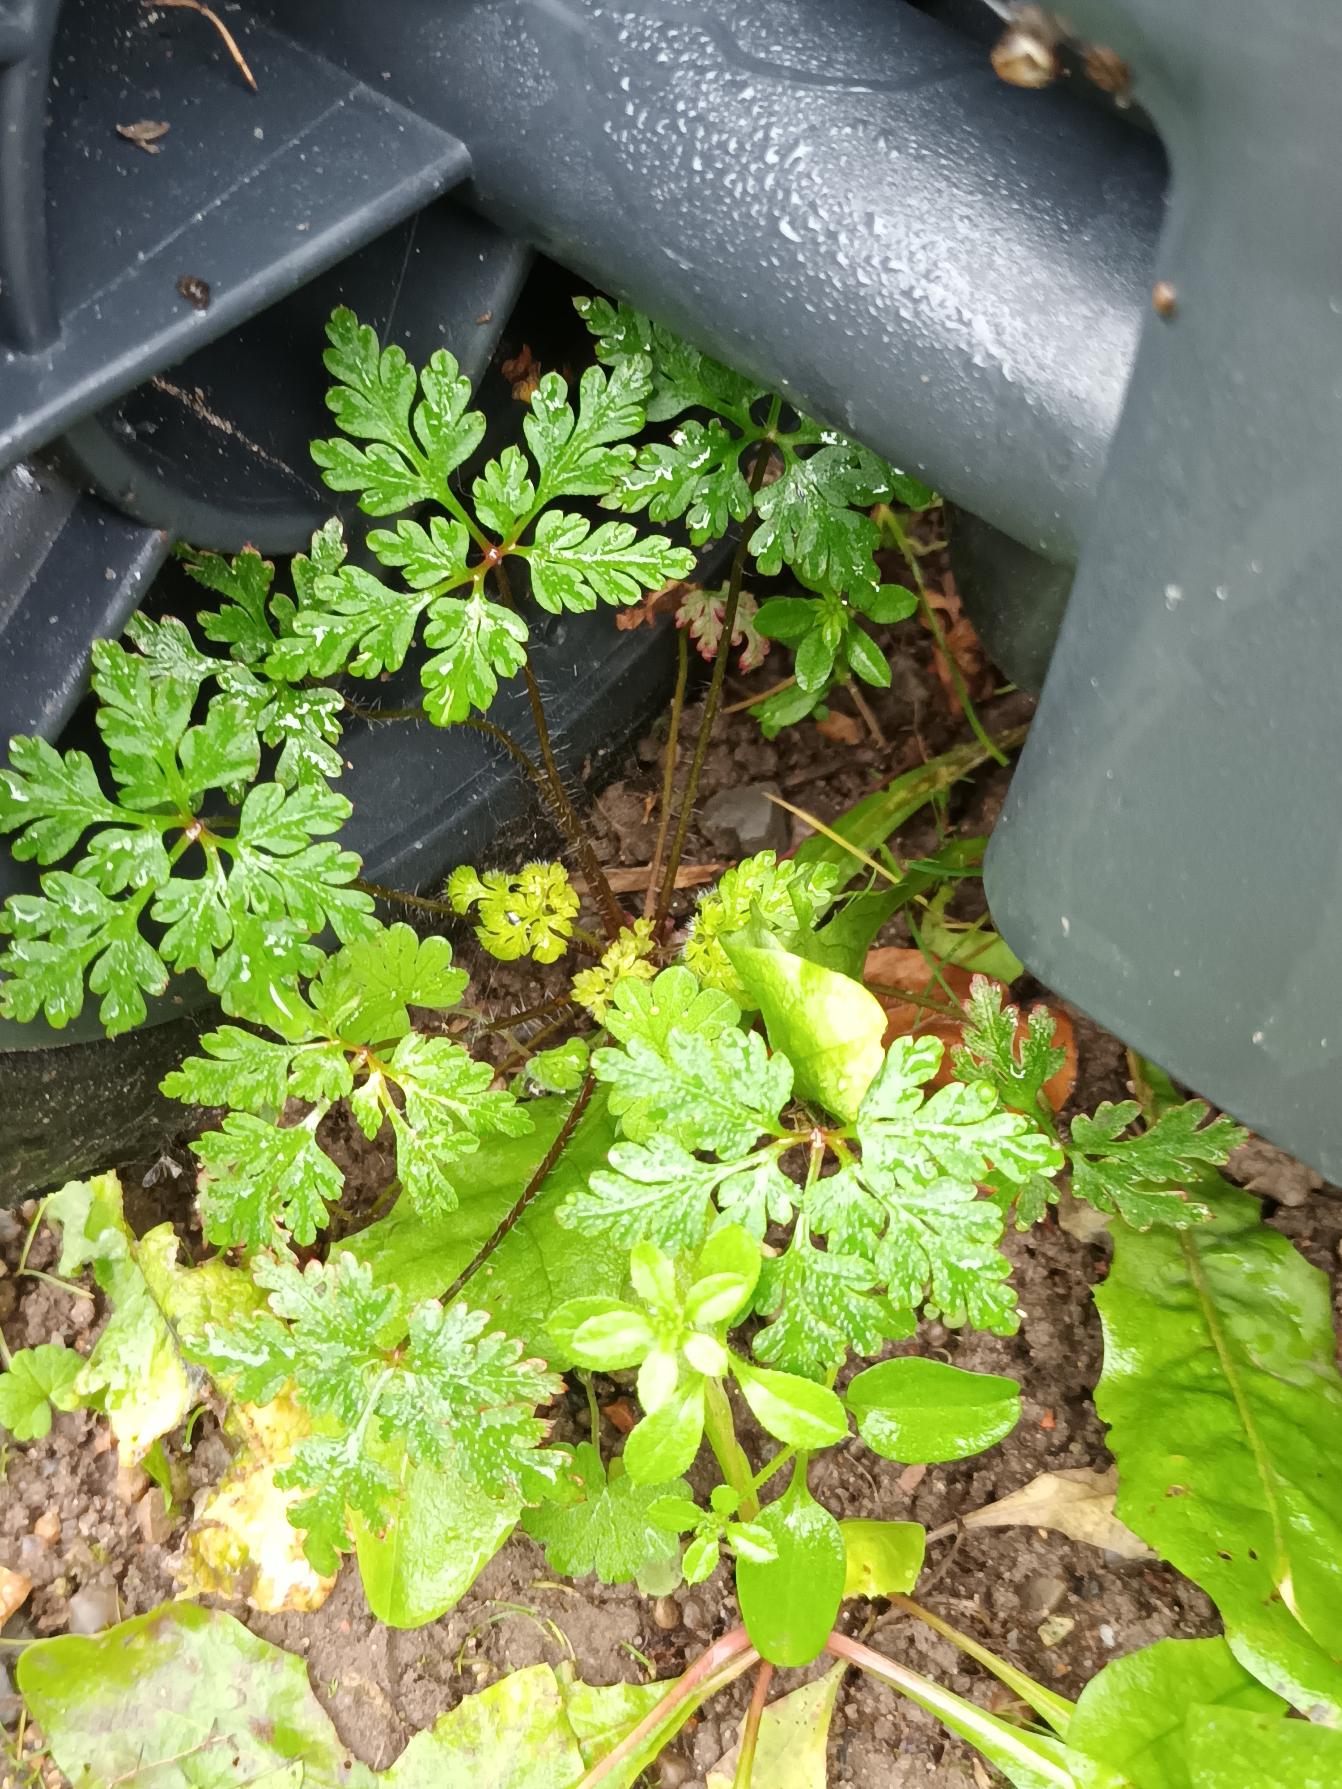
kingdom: Plantae
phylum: Tracheophyta
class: Magnoliopsida
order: Geraniales
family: Geraniaceae
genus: Geranium
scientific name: Geranium robertianum
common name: Stinkende storkenæb
